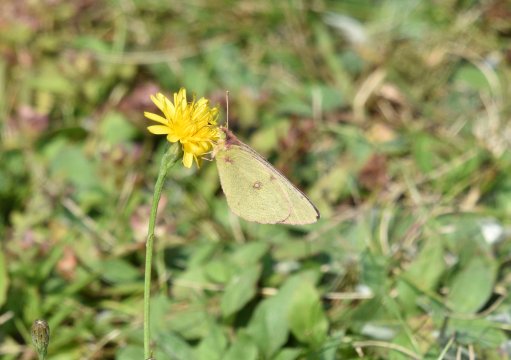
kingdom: Animalia
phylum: Arthropoda
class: Insecta
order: Lepidoptera
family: Pieridae
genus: Colias
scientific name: Colias philodice
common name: Clouded Sulphur
